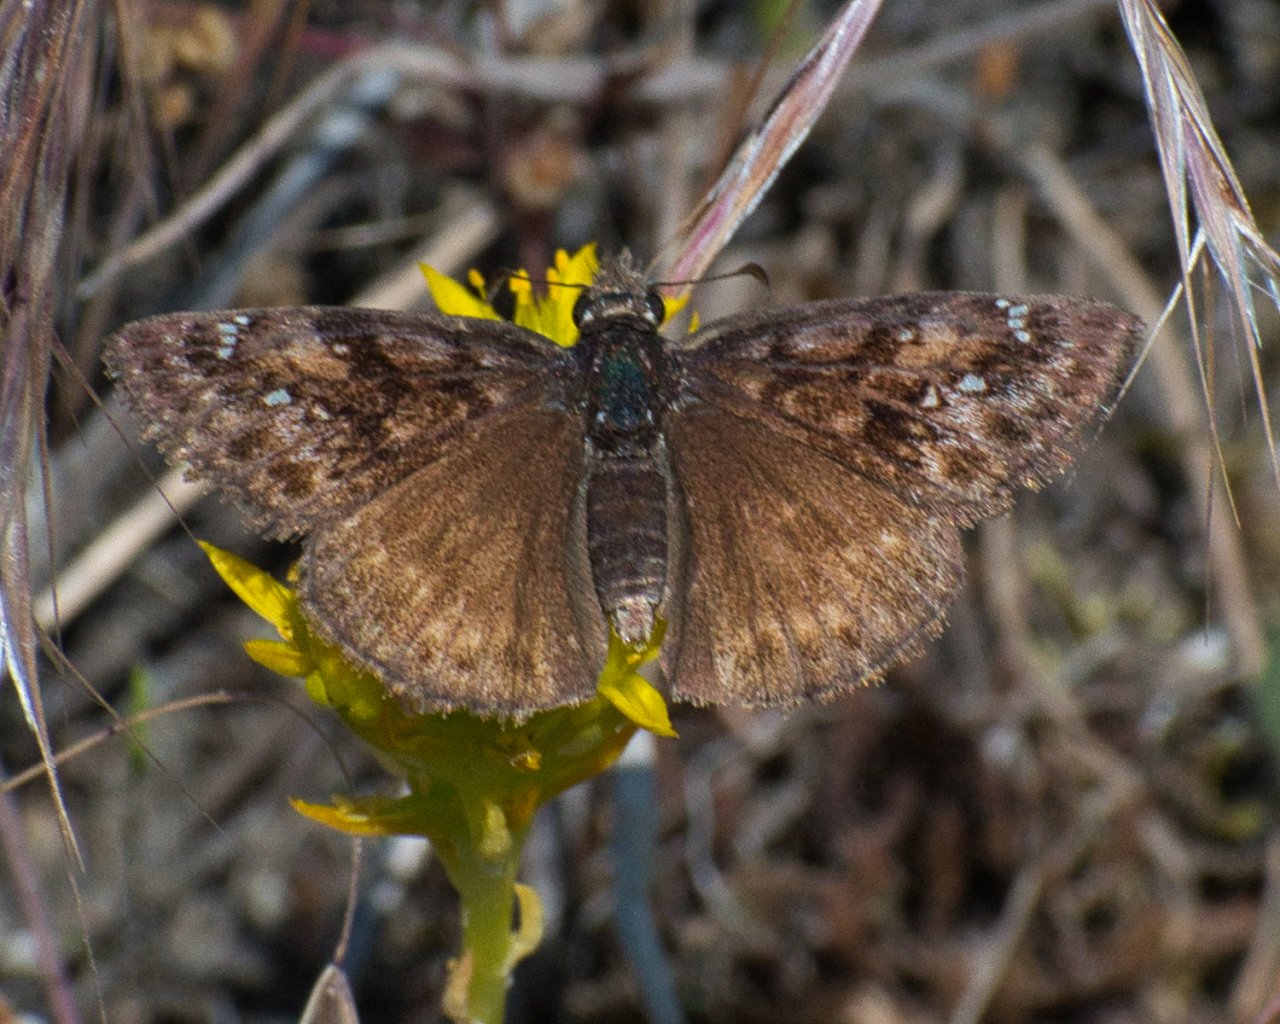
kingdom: Animalia
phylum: Arthropoda
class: Insecta
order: Lepidoptera
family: Hesperiidae
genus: Erynnis
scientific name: Erynnis pacuvius
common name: Pacuvius Duskywing
